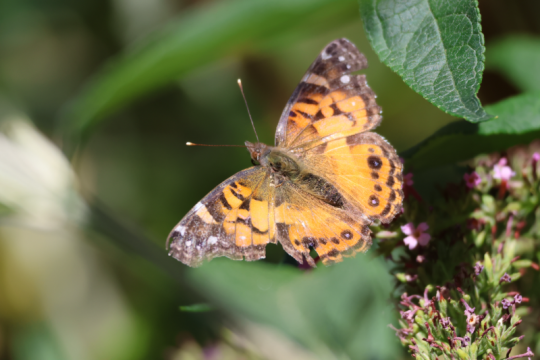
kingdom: Animalia
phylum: Arthropoda
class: Insecta
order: Lepidoptera
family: Nymphalidae
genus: Vanessa
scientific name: Vanessa virginiensis
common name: American Lady
